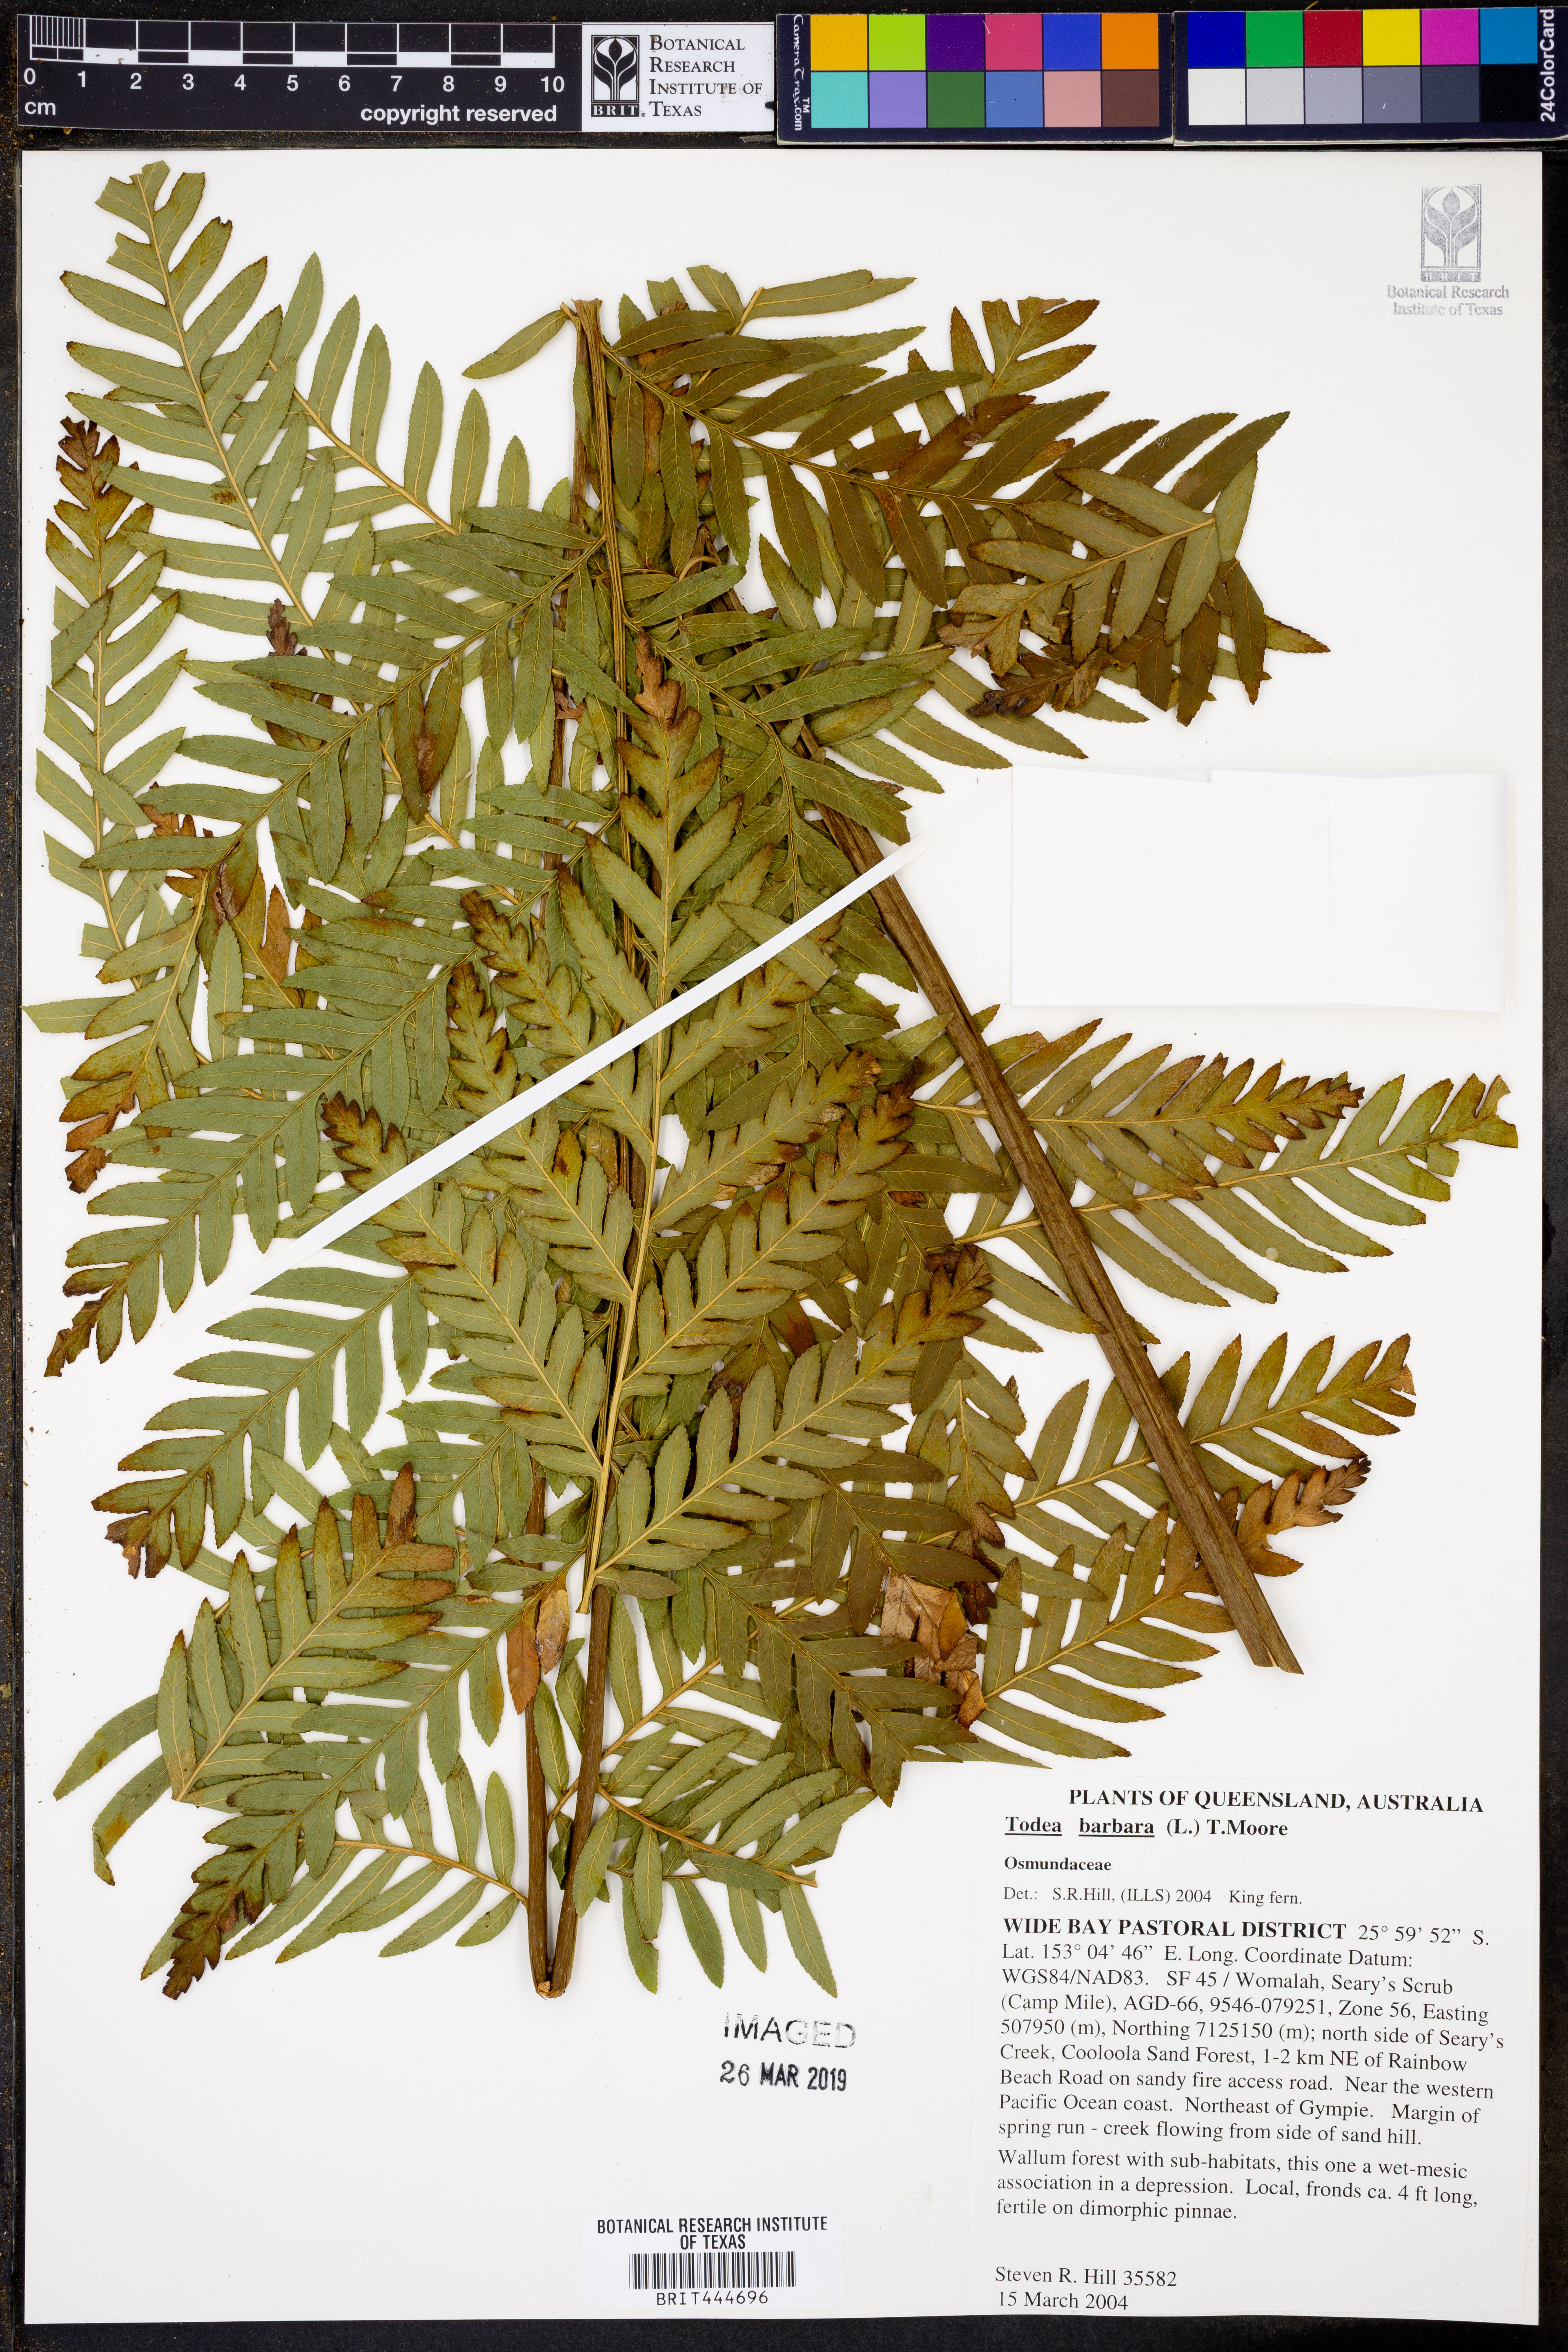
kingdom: Plantae
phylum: Tracheophyta
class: Polypodiopsida
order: Osmundales
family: Osmundaceae
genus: Todea
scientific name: Todea barbara
